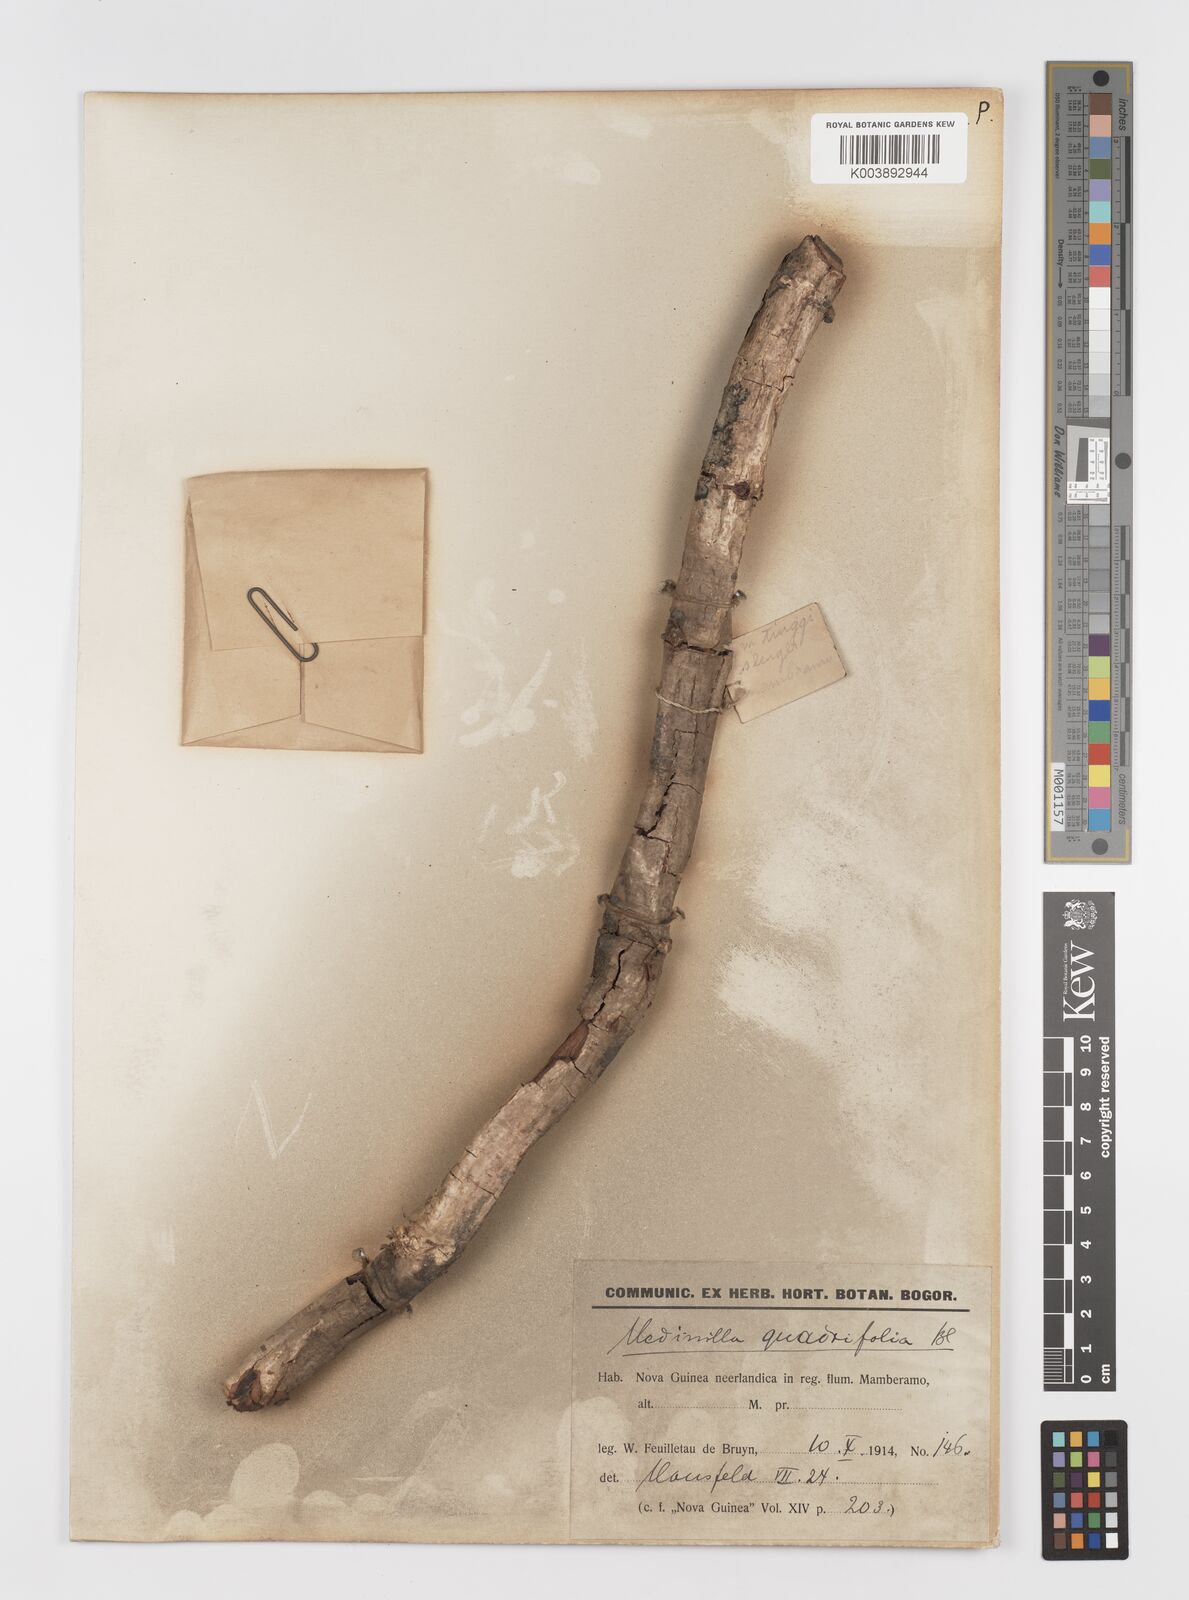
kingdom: Plantae
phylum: Tracheophyta
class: Magnoliopsida
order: Myrtales
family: Melastomataceae
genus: Medinilla
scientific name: Medinilla beddomei
